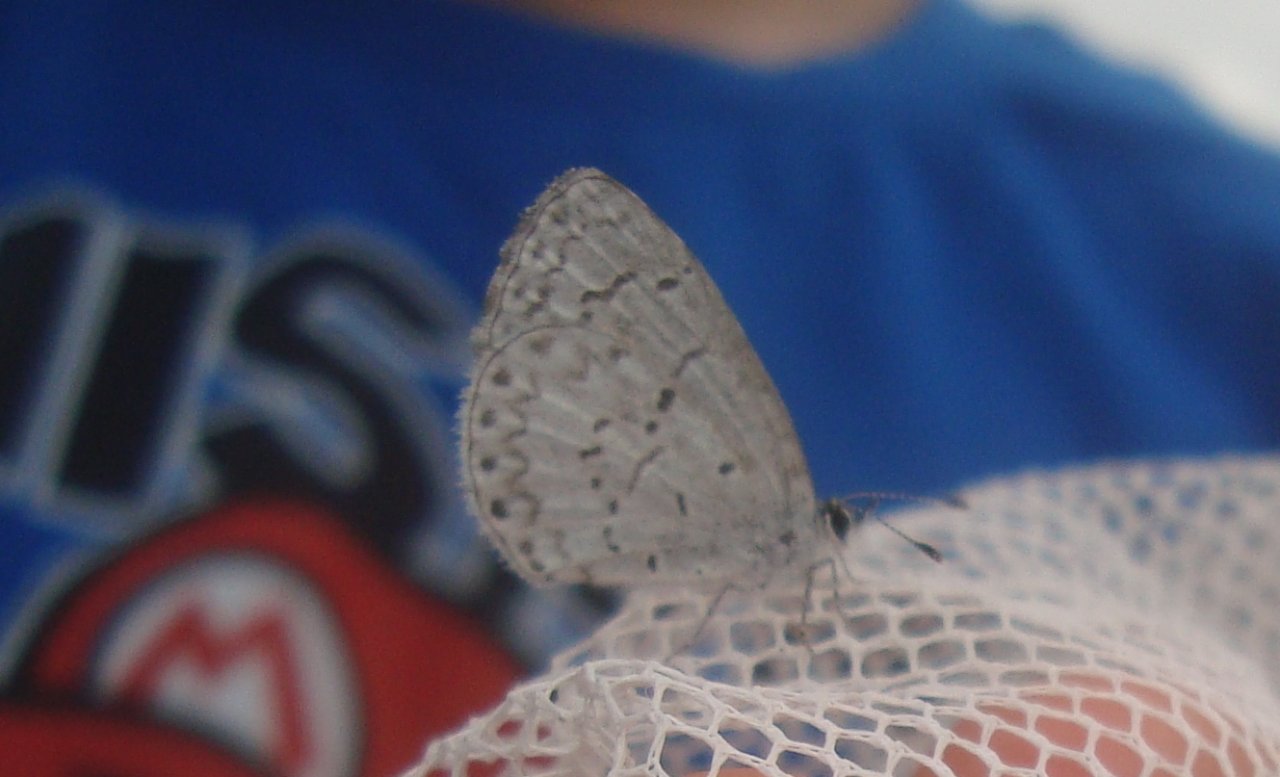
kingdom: Animalia
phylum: Arthropoda
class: Insecta
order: Lepidoptera
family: Lycaenidae
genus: Celastrina
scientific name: Celastrina lucia
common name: Northern Spring Azure
